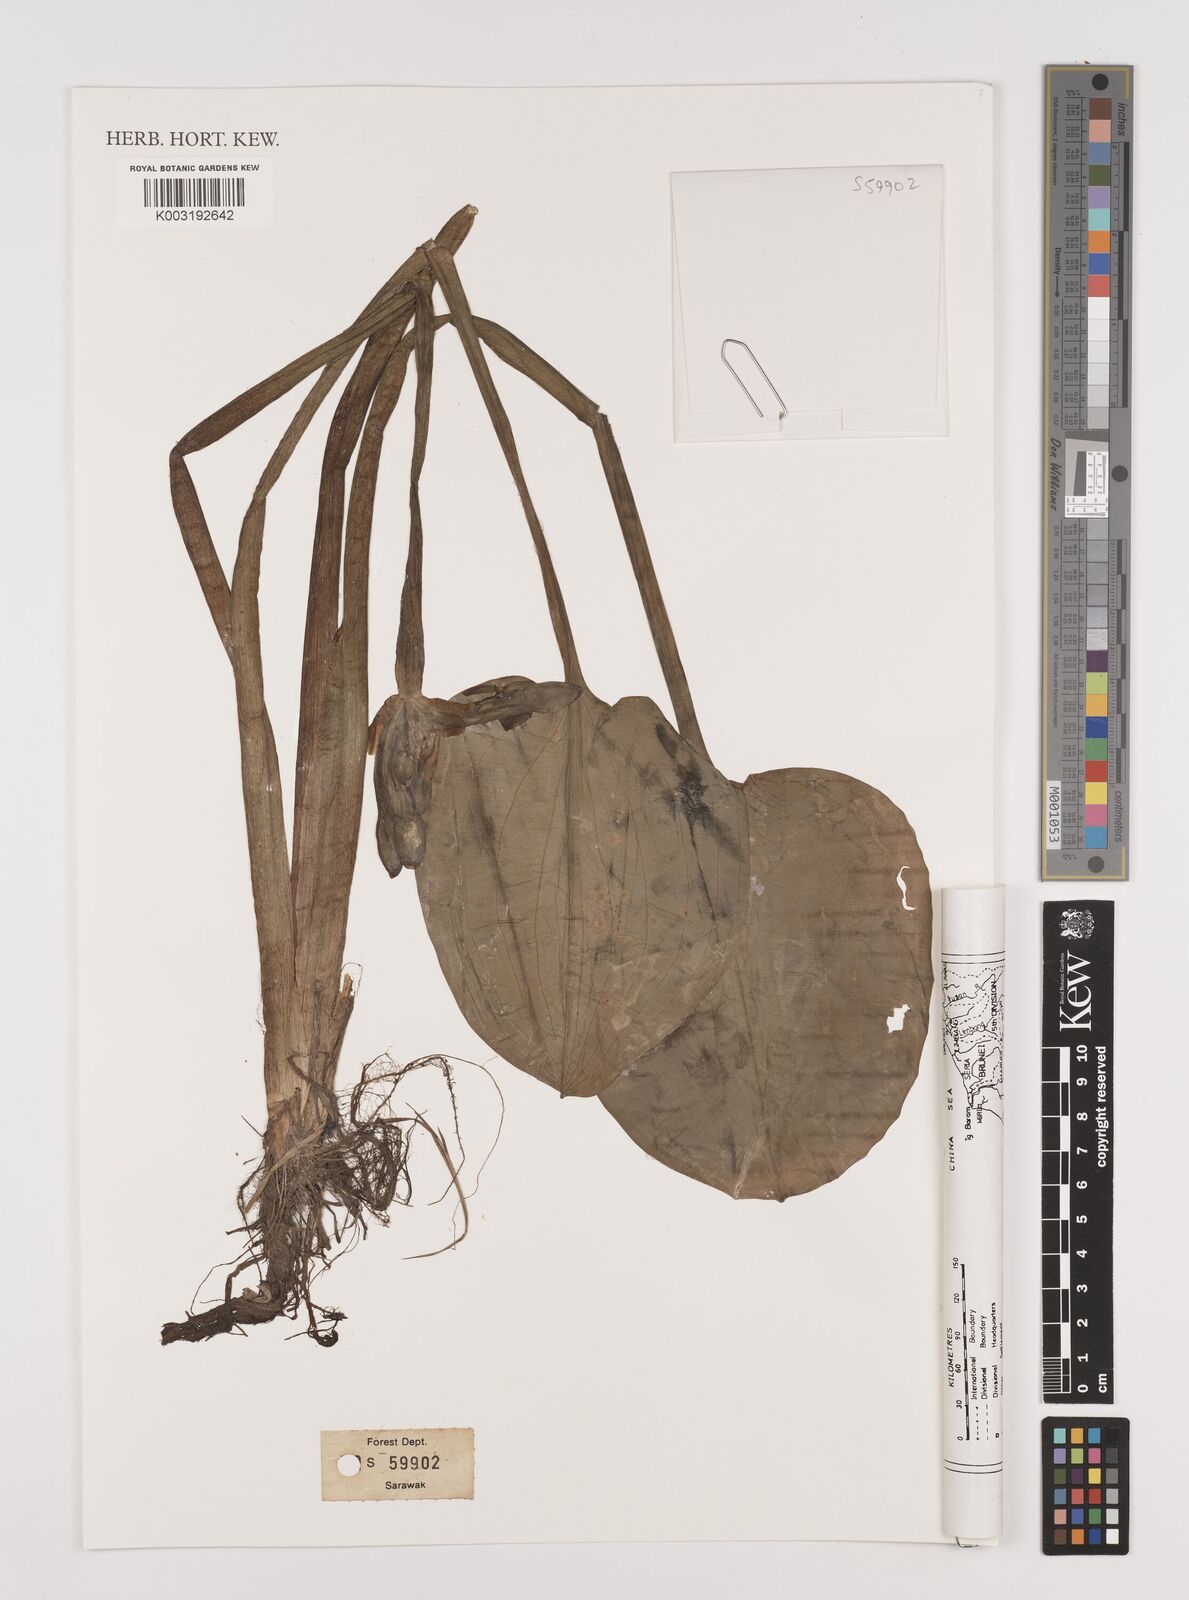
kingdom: Plantae
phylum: Tracheophyta
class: Liliopsida
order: Alismatales
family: Alismataceae
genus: Limnocharis
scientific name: Limnocharis flava
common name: Sawah-flower-rush
